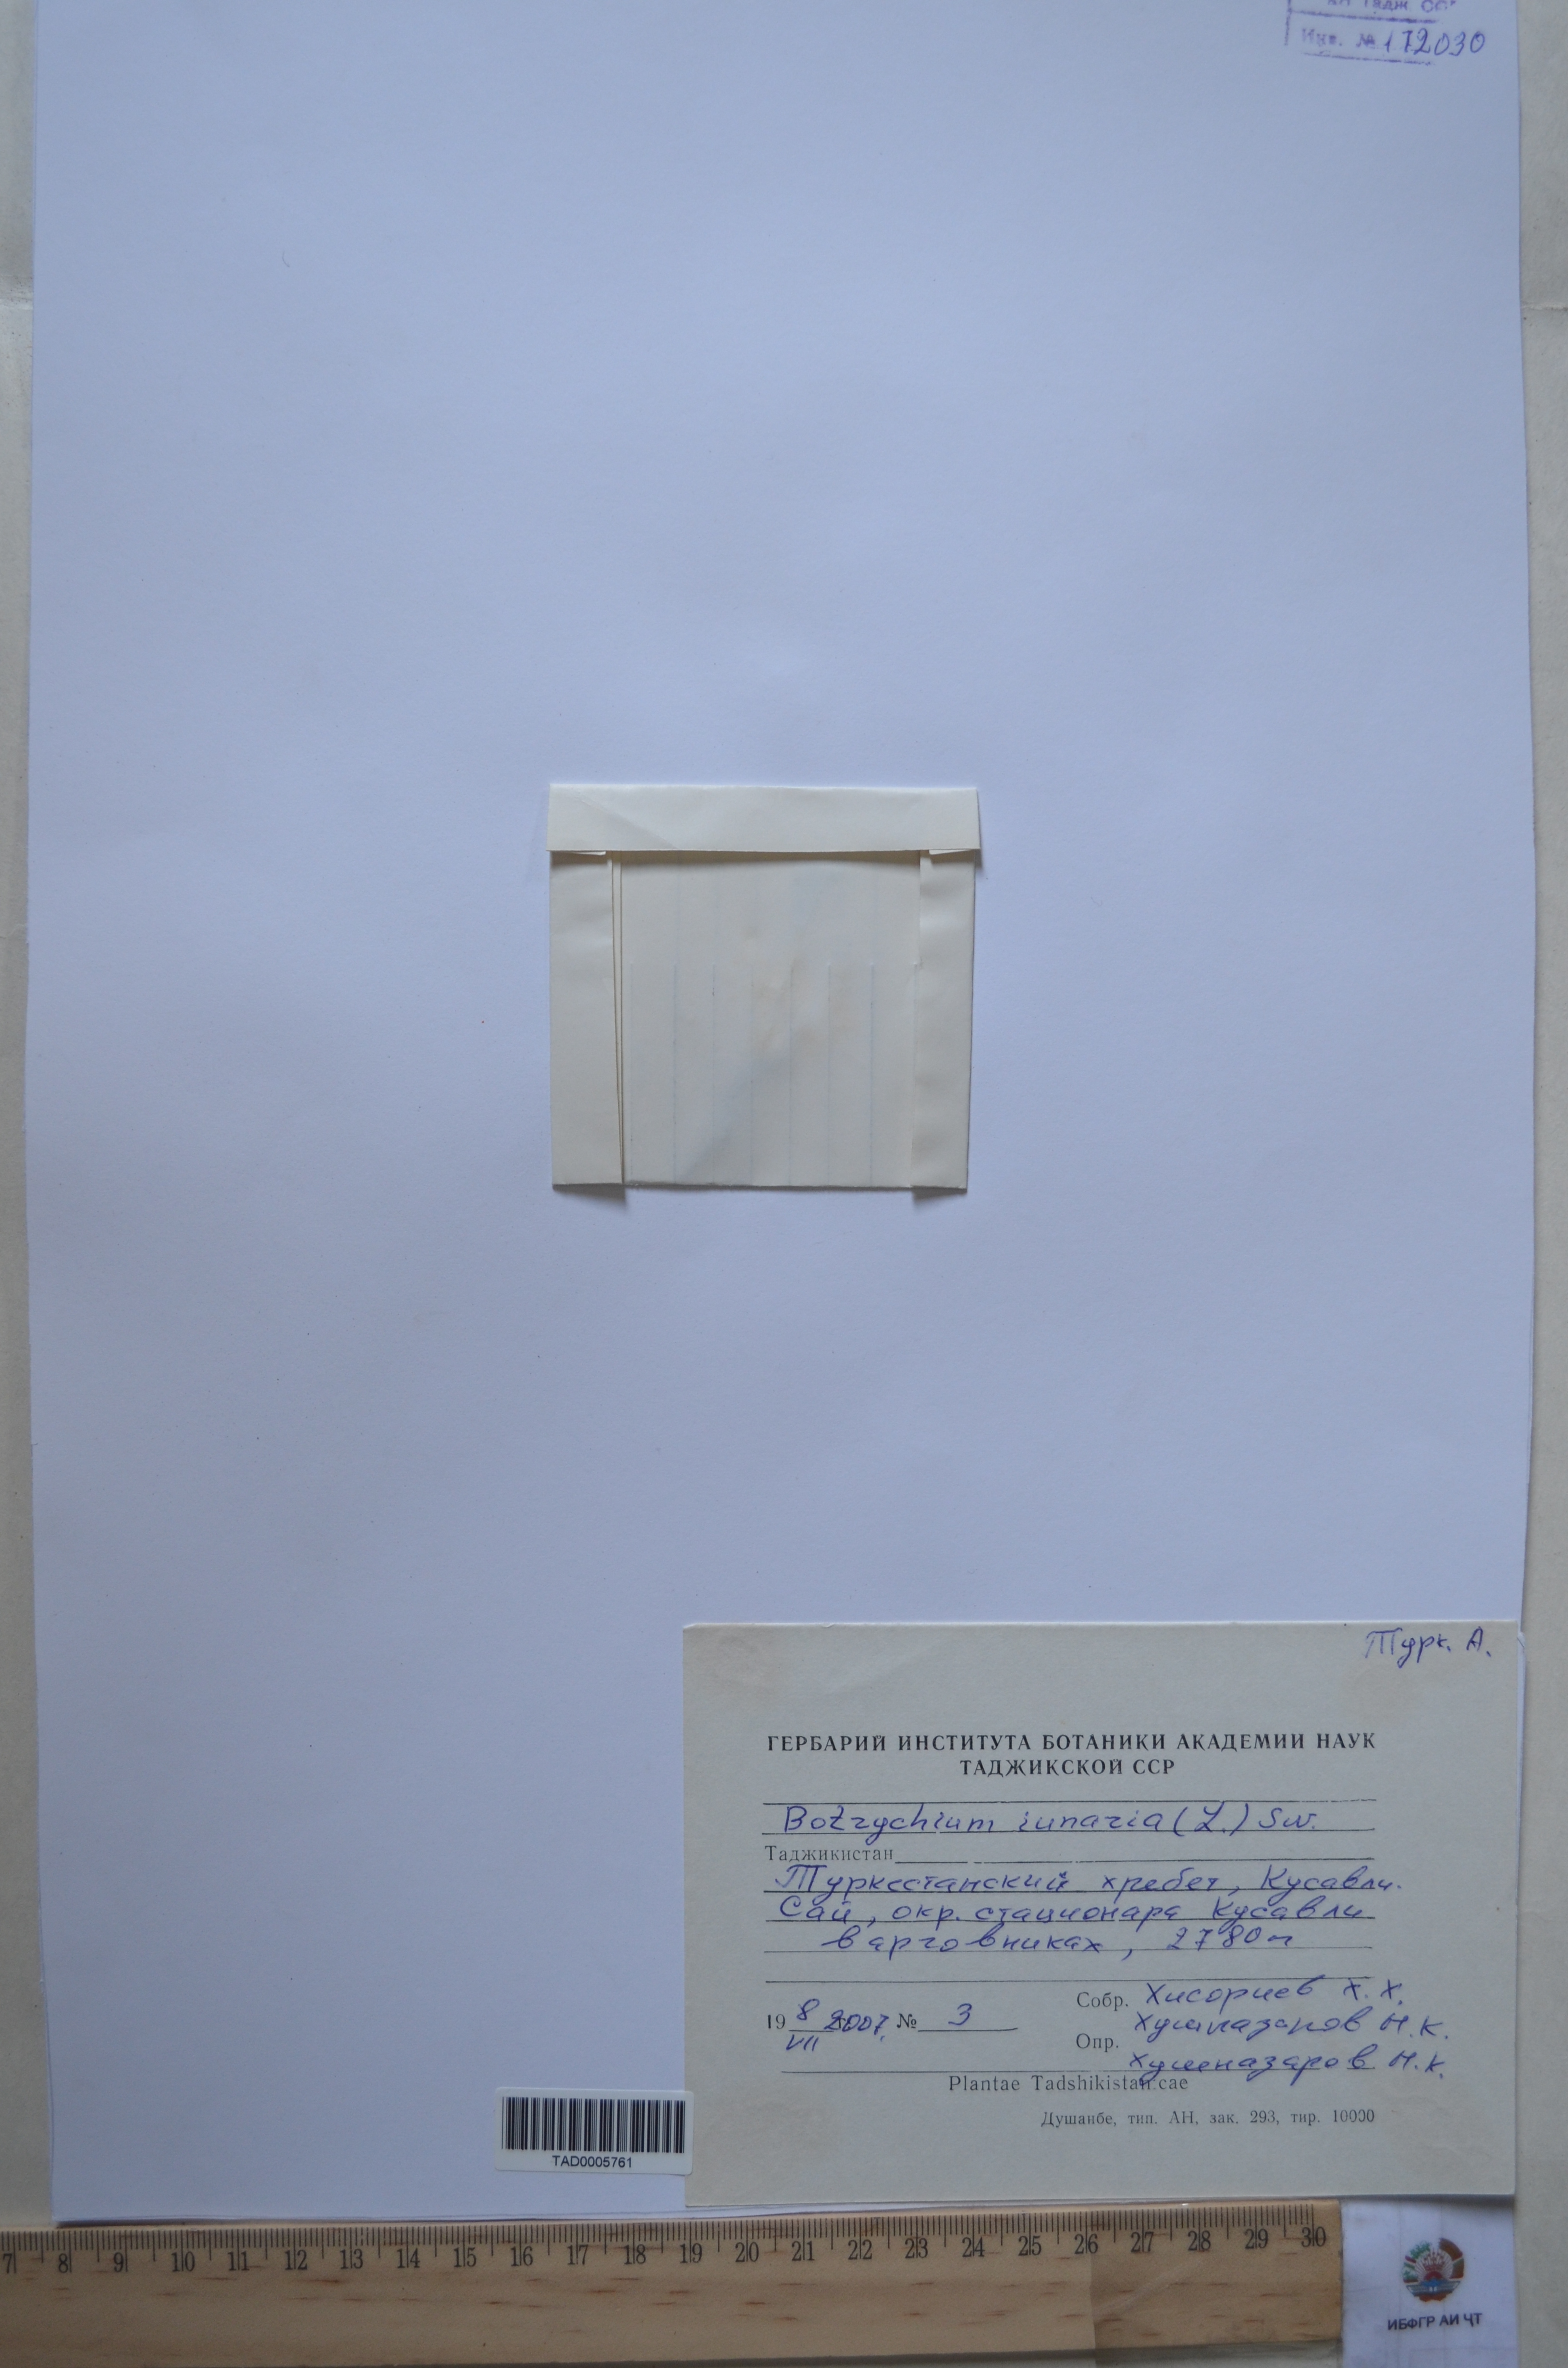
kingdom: Plantae
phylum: Tracheophyta
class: Polypodiopsida
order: Ophioglossales
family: Ophioglossaceae
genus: Botrychium
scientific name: Botrychium lunaria
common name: Moonwort
